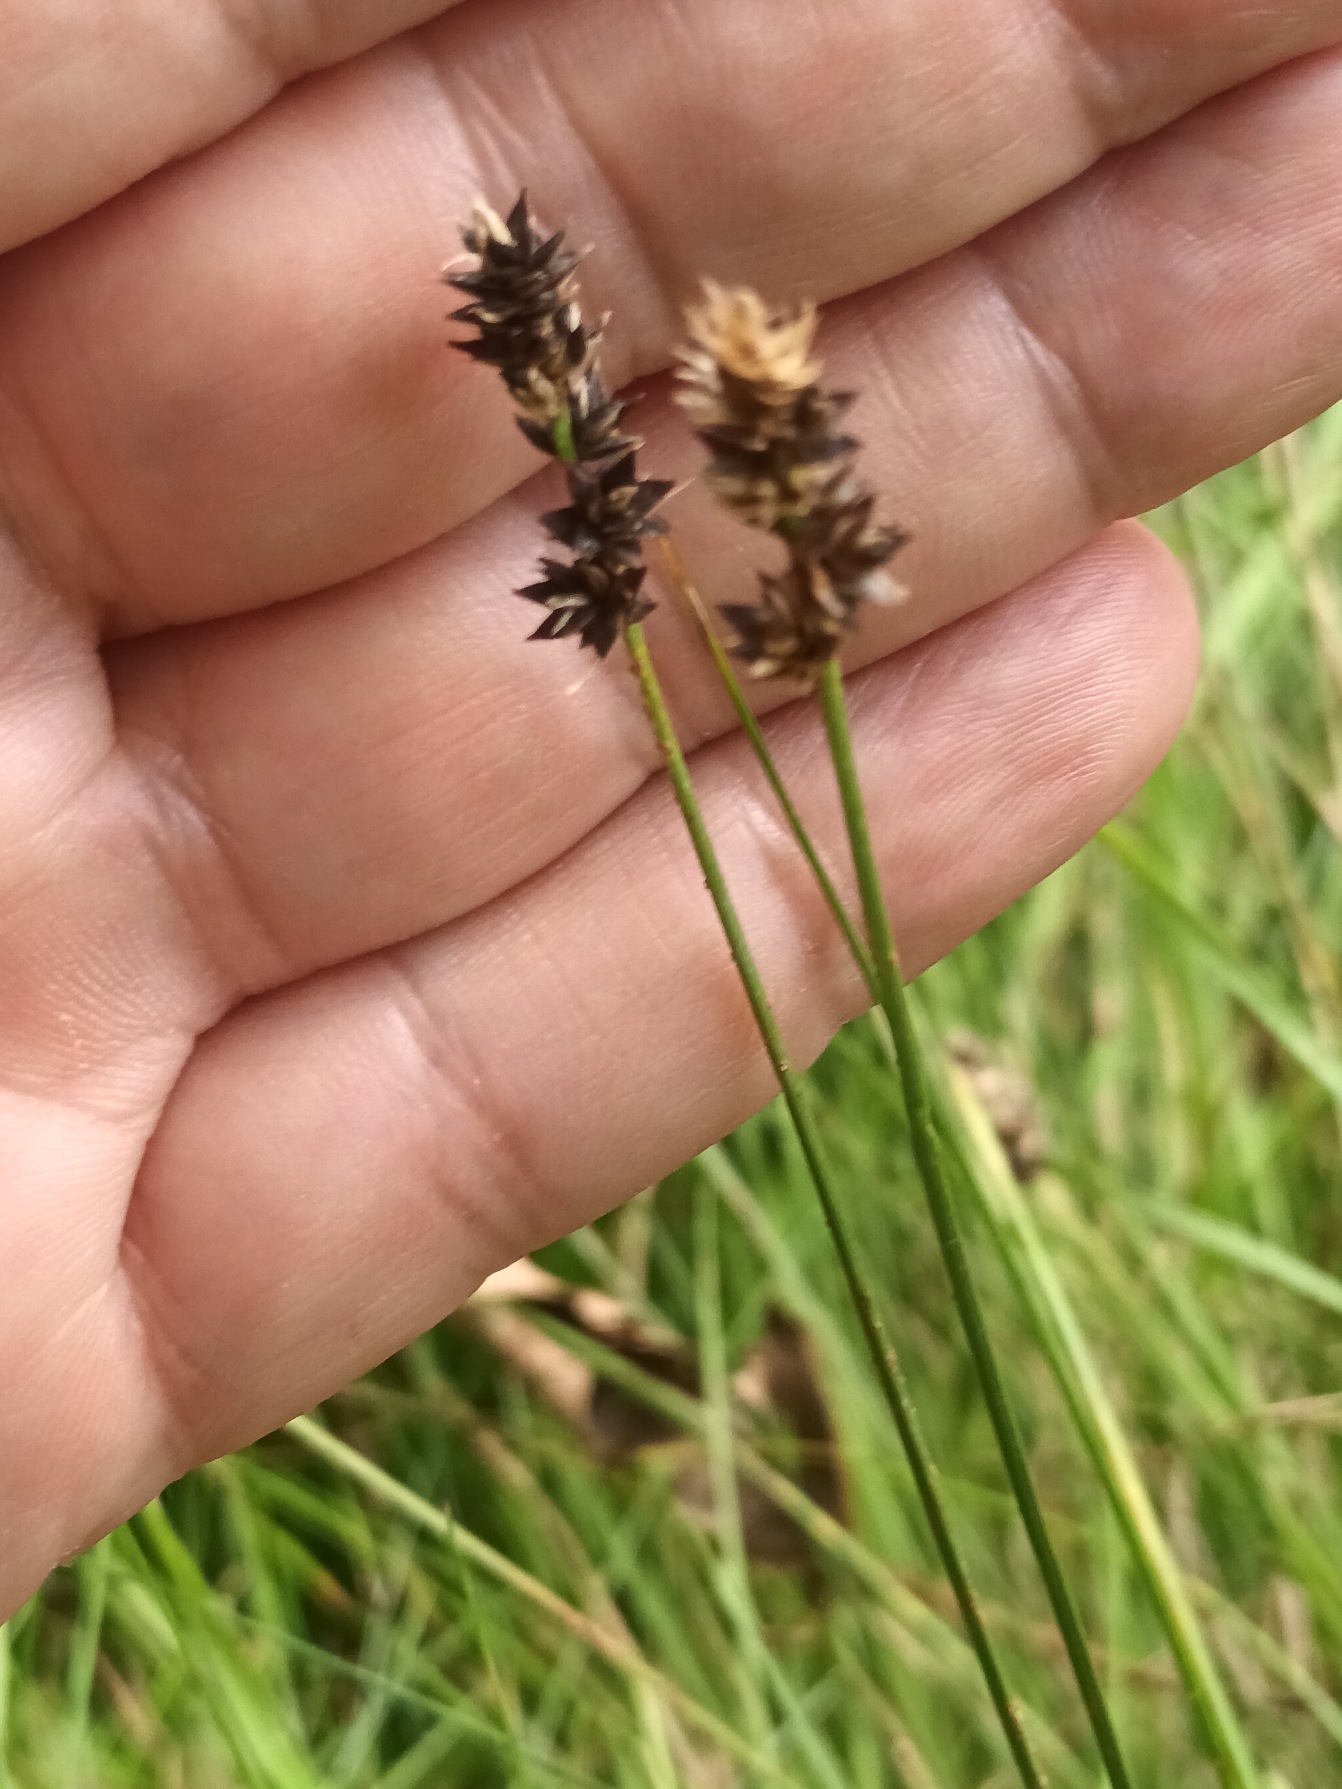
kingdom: Plantae
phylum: Tracheophyta
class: Liliopsida
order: Poales
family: Cyperaceae
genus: Carex
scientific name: Carex pairae
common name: Pigget star
